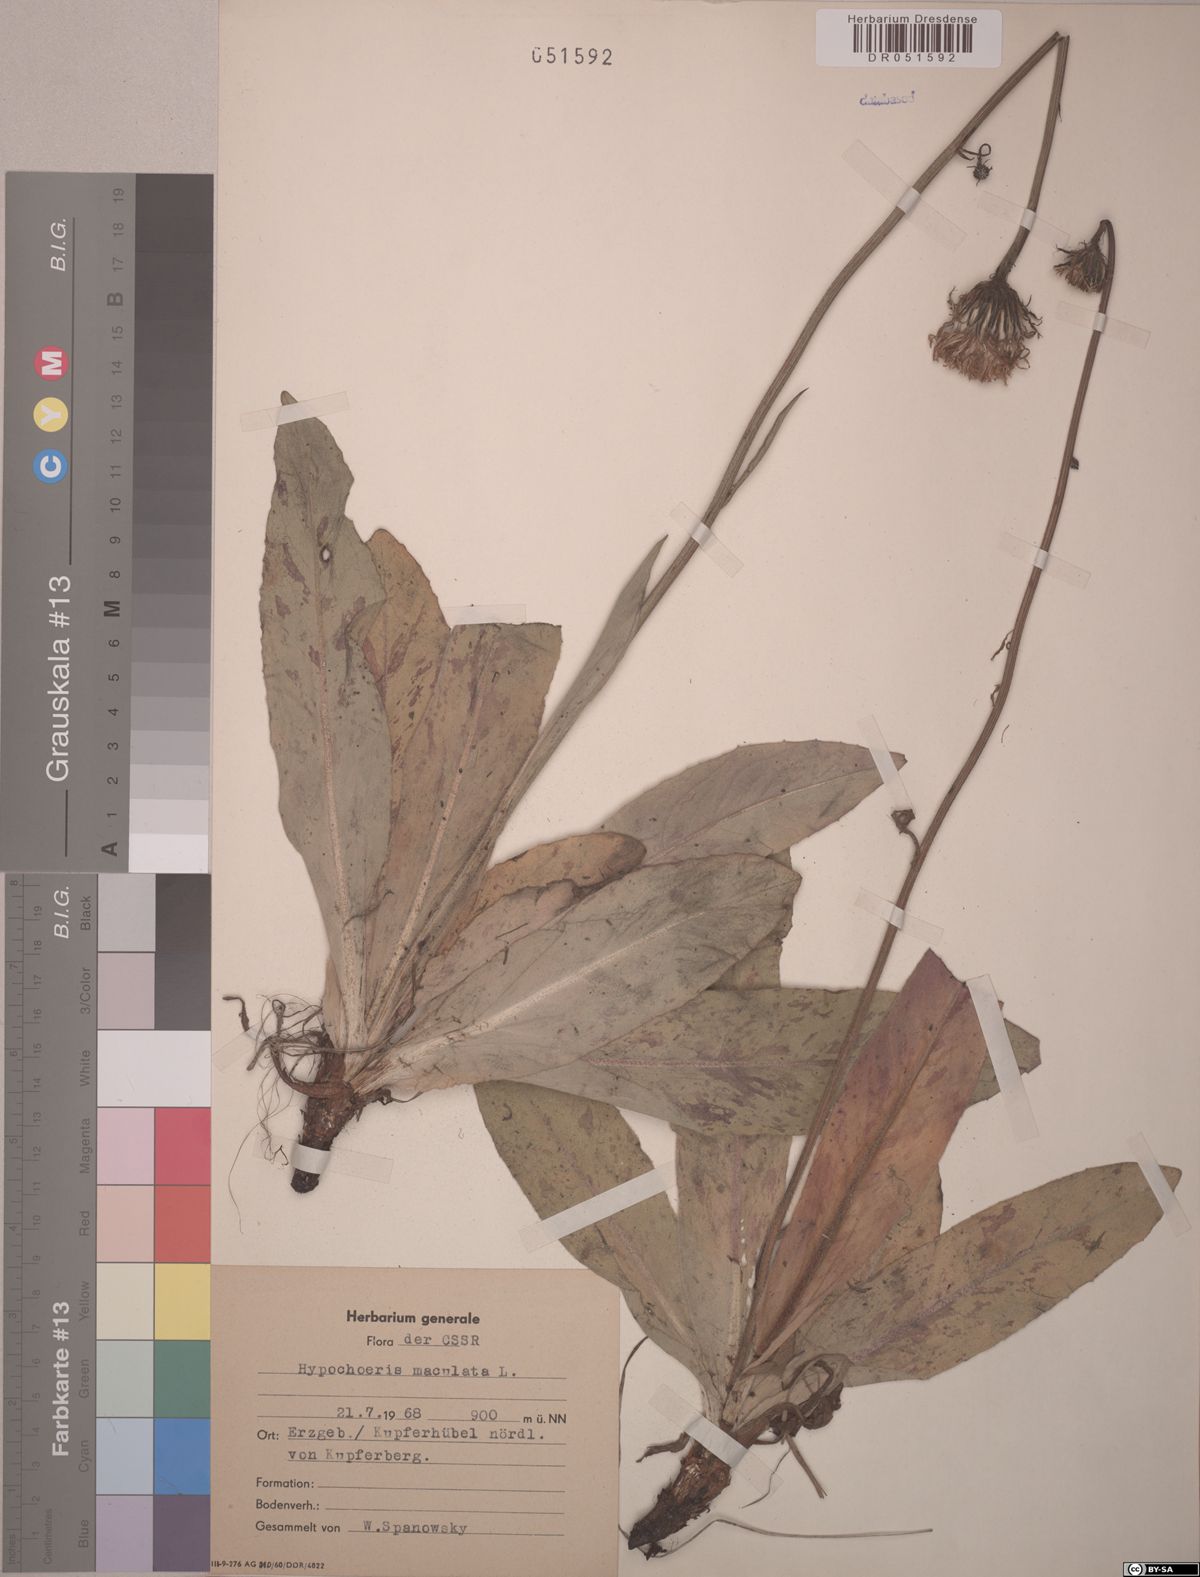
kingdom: Plantae
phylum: Tracheophyta
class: Magnoliopsida
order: Asterales
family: Asteraceae
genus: Trommsdorffia
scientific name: Trommsdorffia maculata
